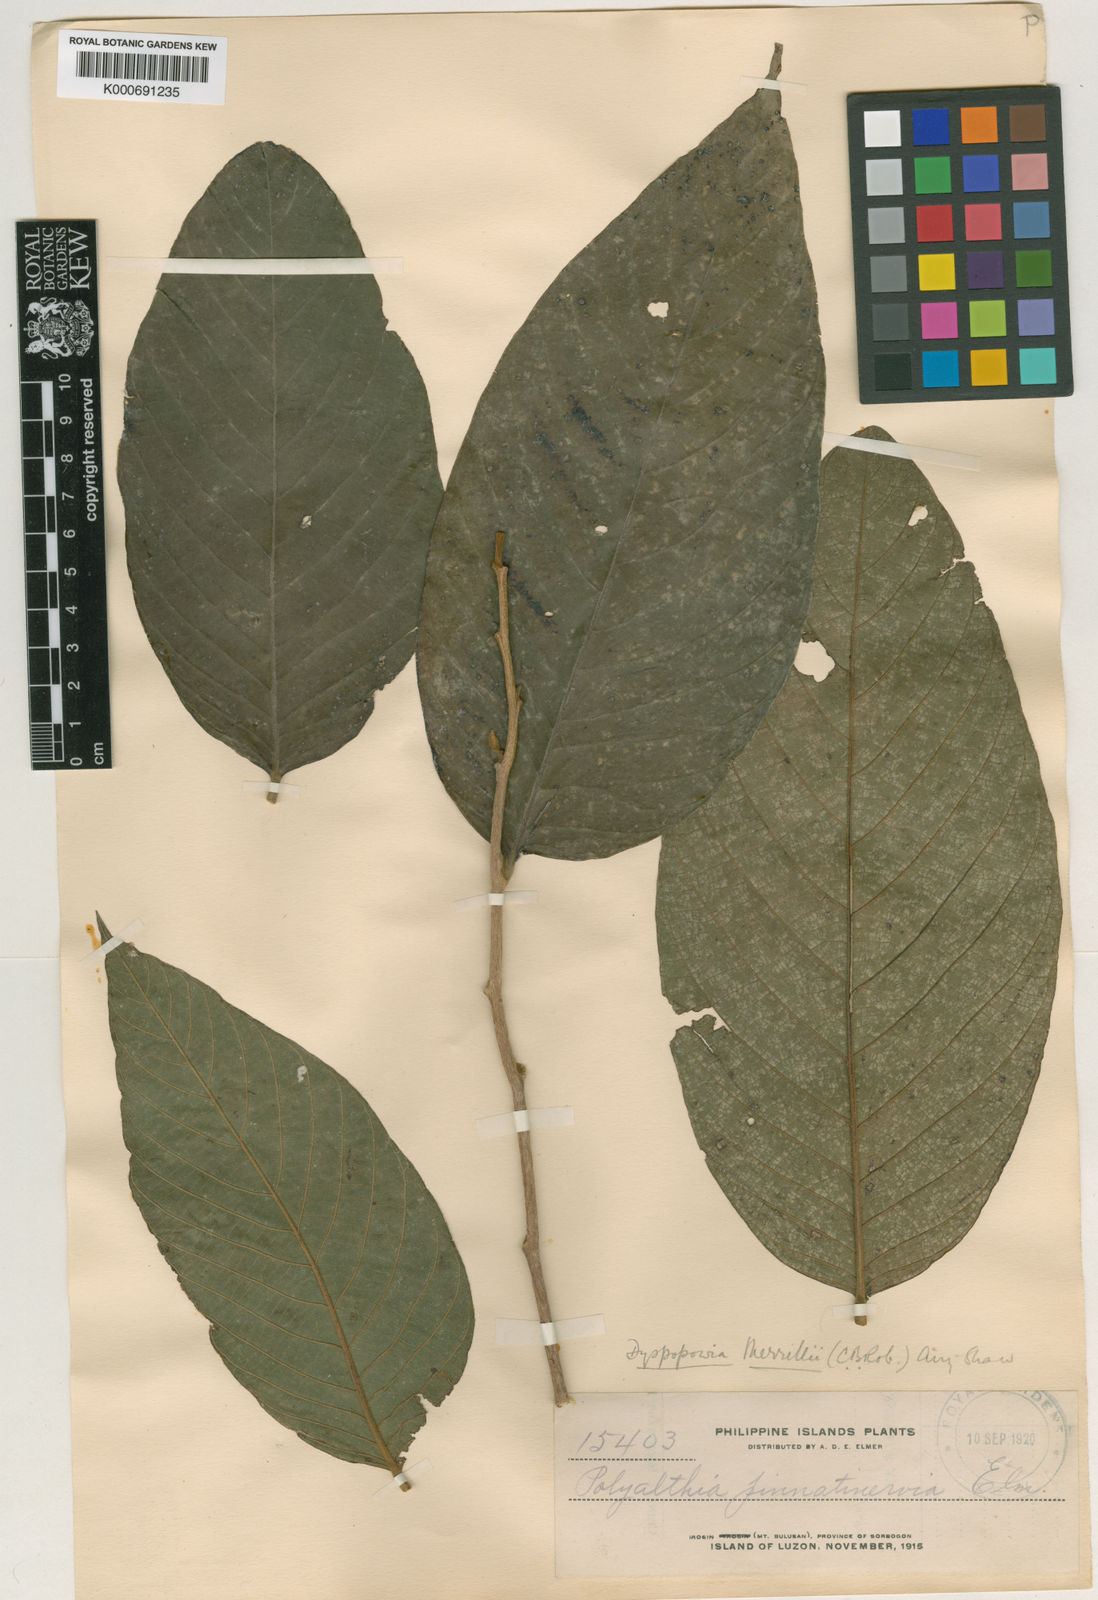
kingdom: Plantae
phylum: Tracheophyta
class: Magnoliopsida
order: Magnoliales
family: Annonaceae
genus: Neouvaria
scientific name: Neouvaria acuminatissima
